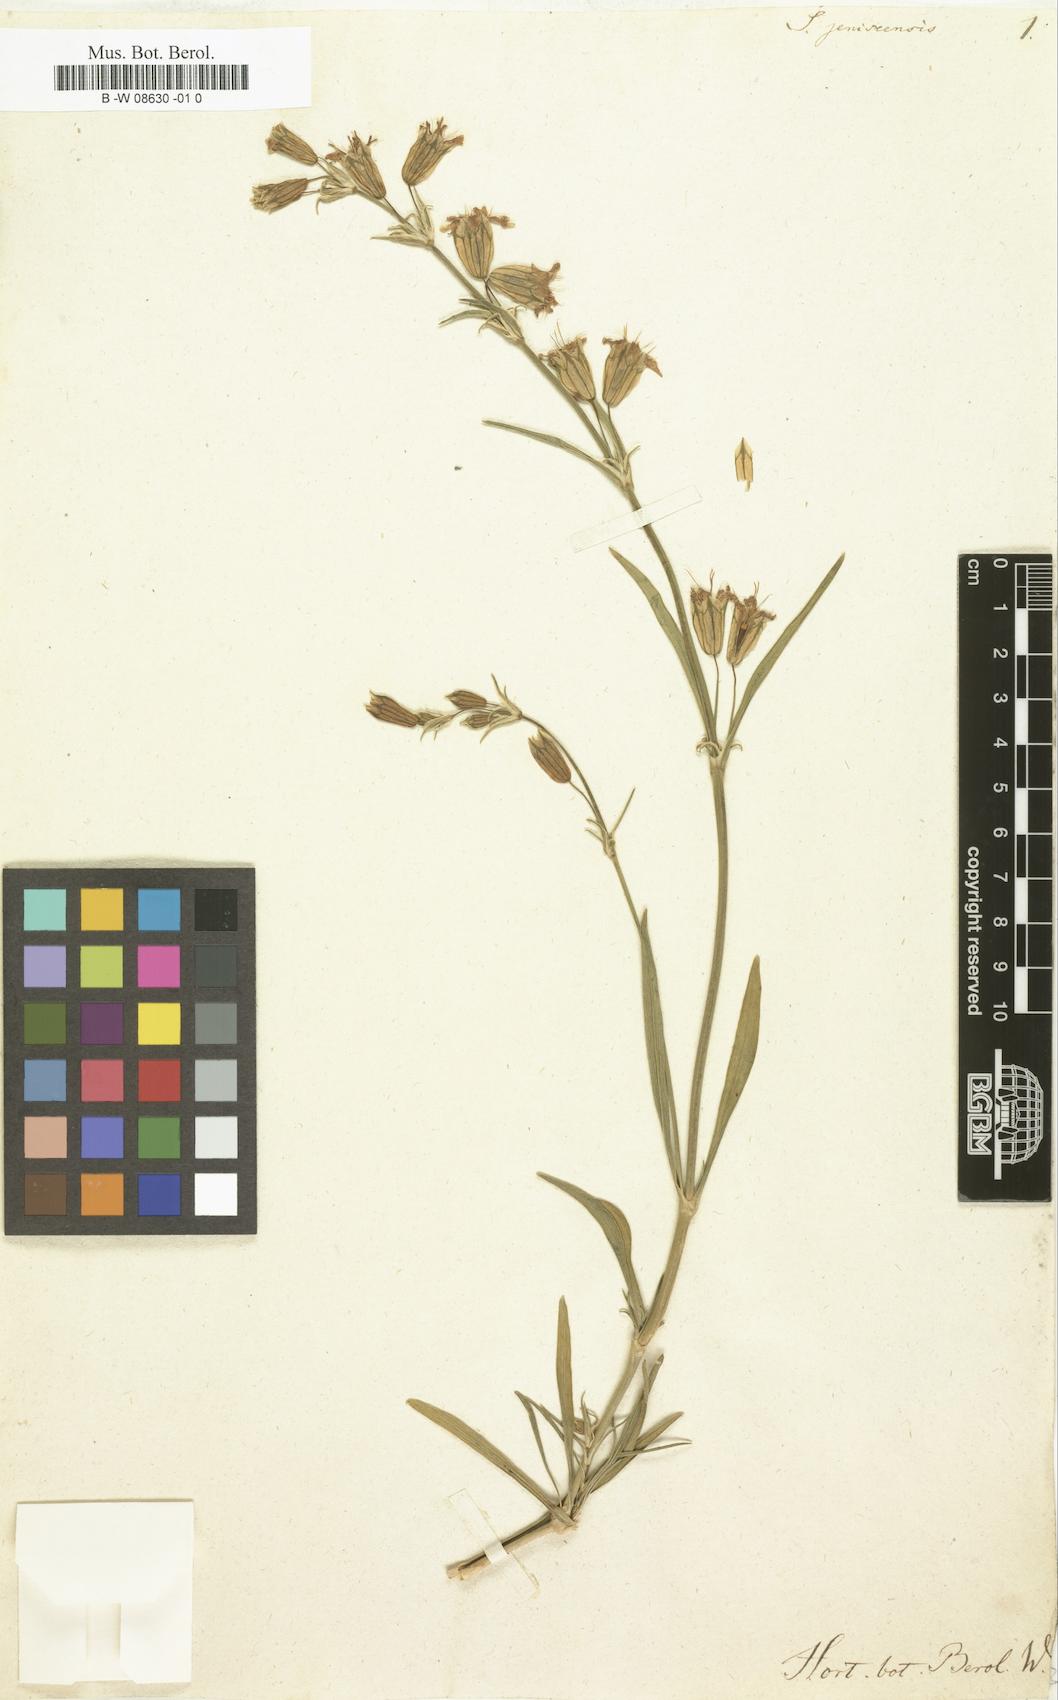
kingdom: Plantae
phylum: Tracheophyta
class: Magnoliopsida
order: Caryophyllales
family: Caryophyllaceae
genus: Silene
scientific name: Silene jeniseensis
